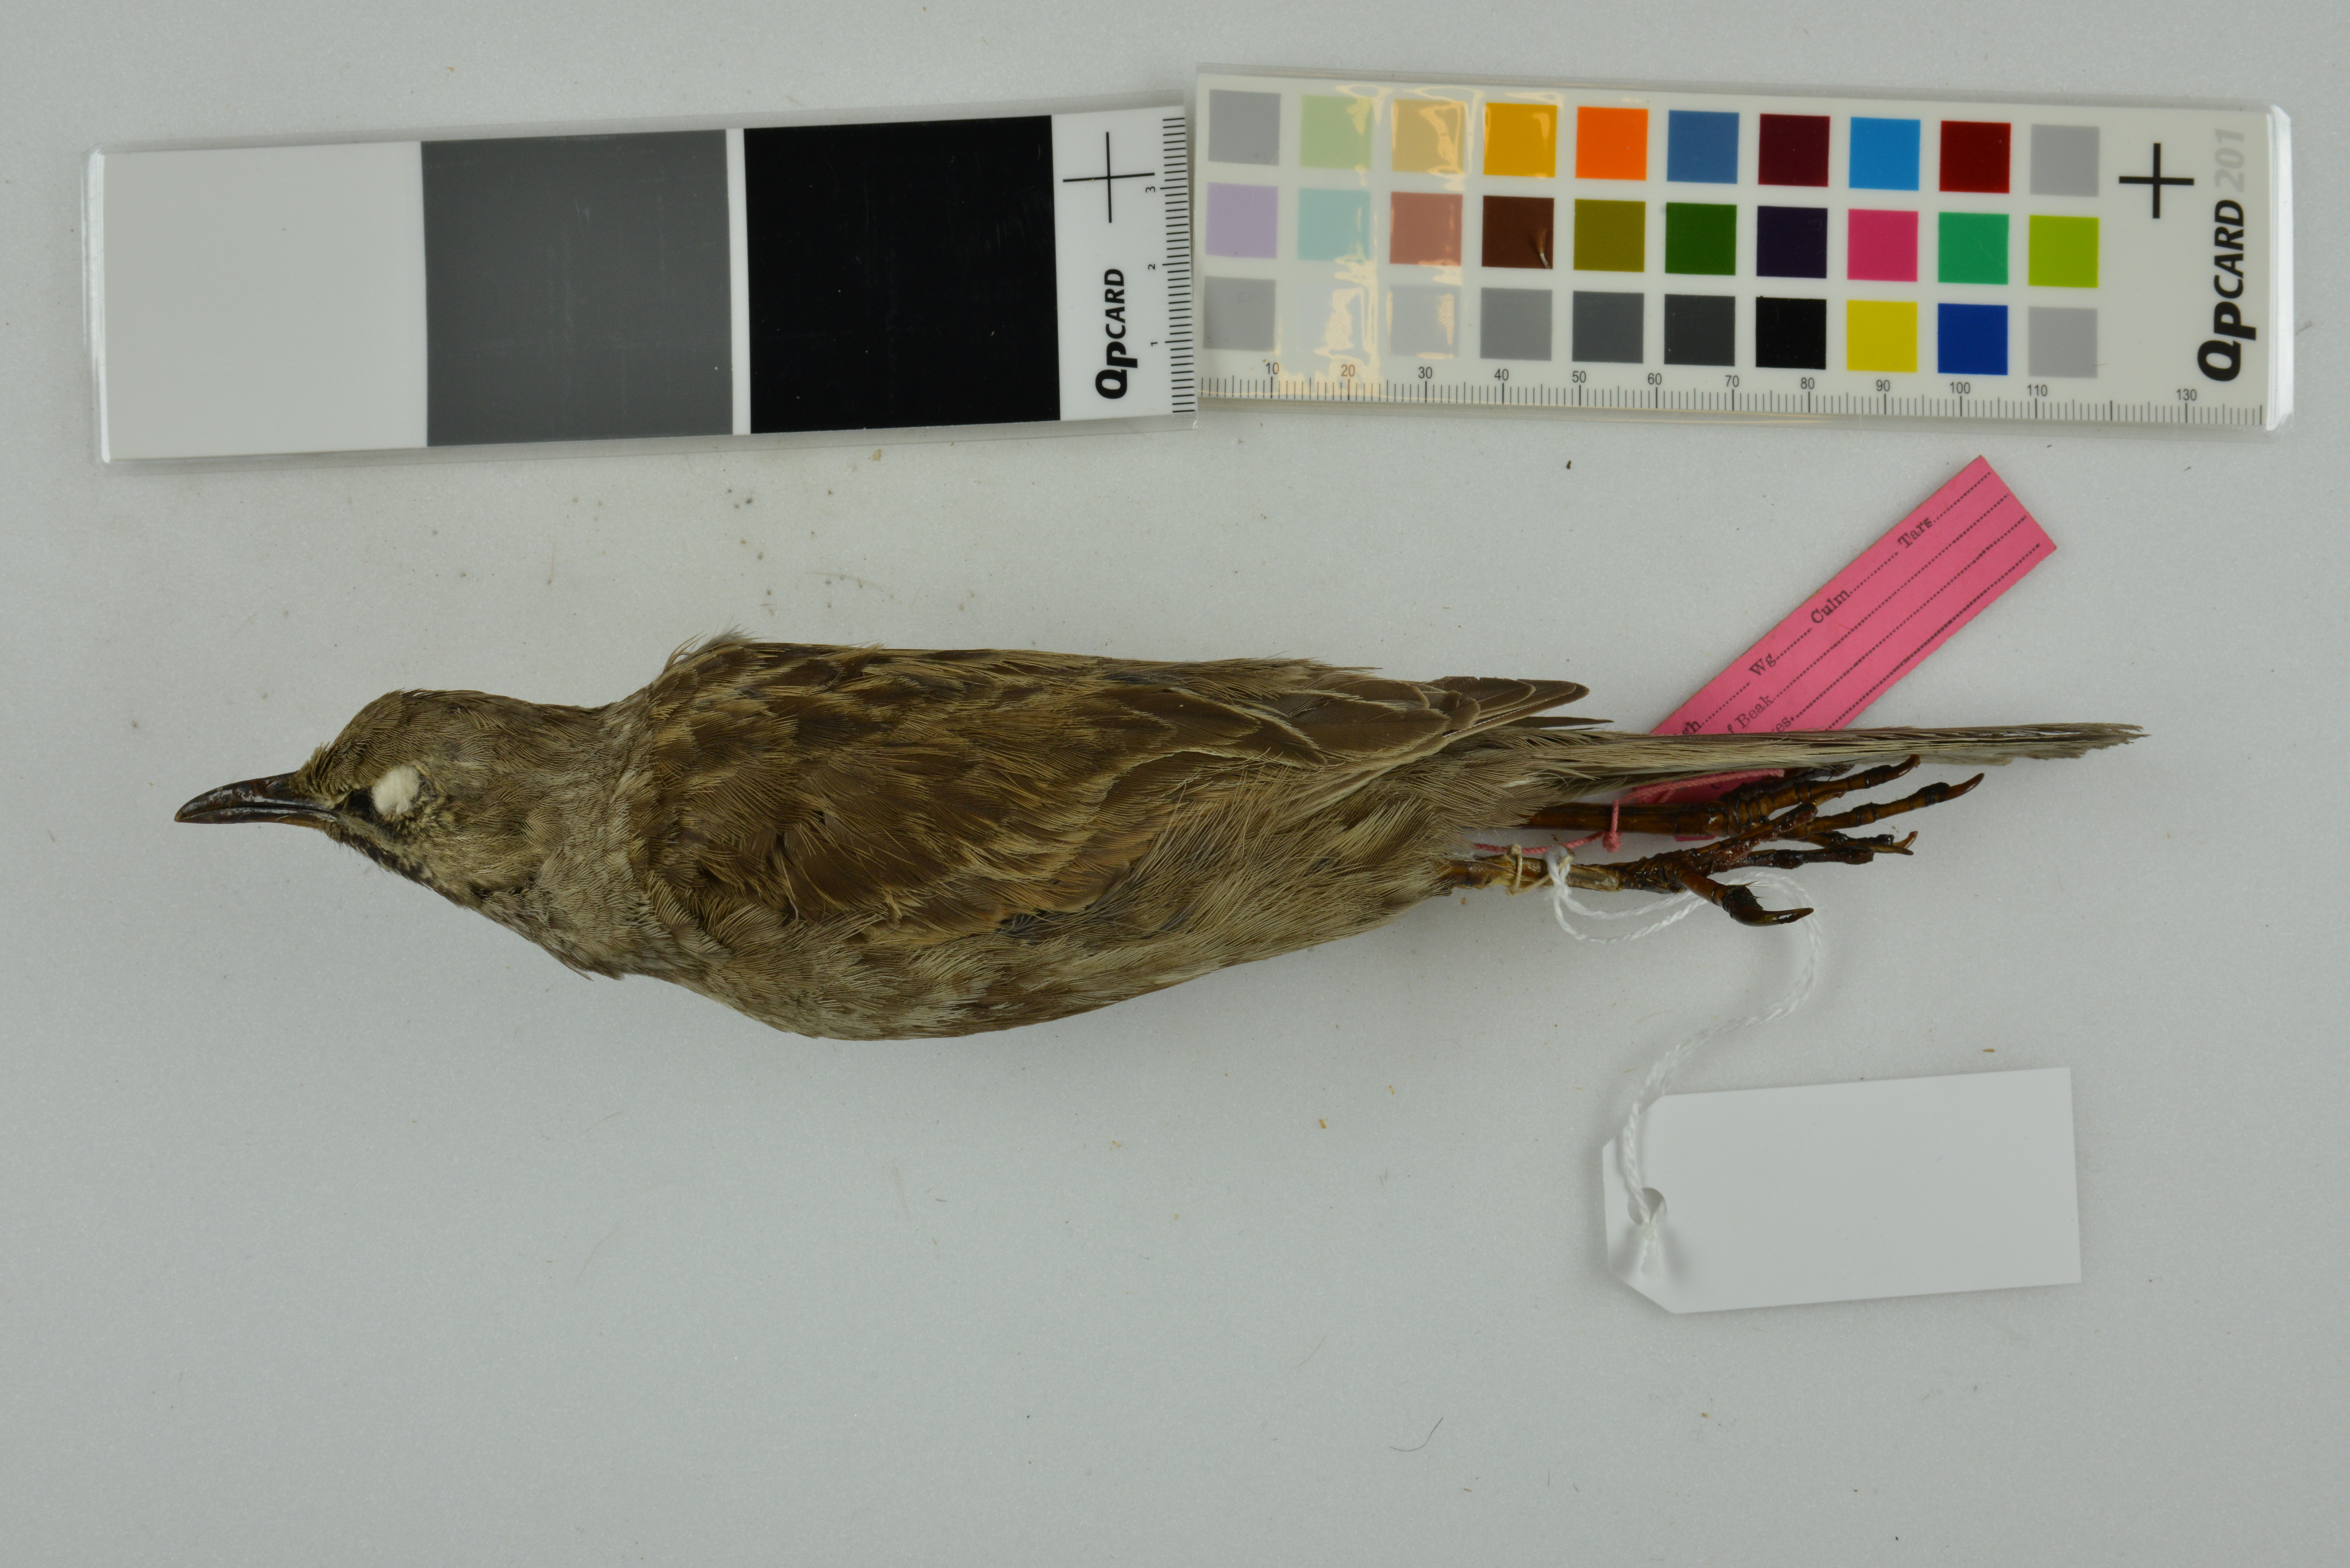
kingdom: Animalia
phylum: Chordata
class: Aves
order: Passeriformes
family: Locustellidae
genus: Megalurus
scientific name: Megalurus cruralis
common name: Brown songlark
